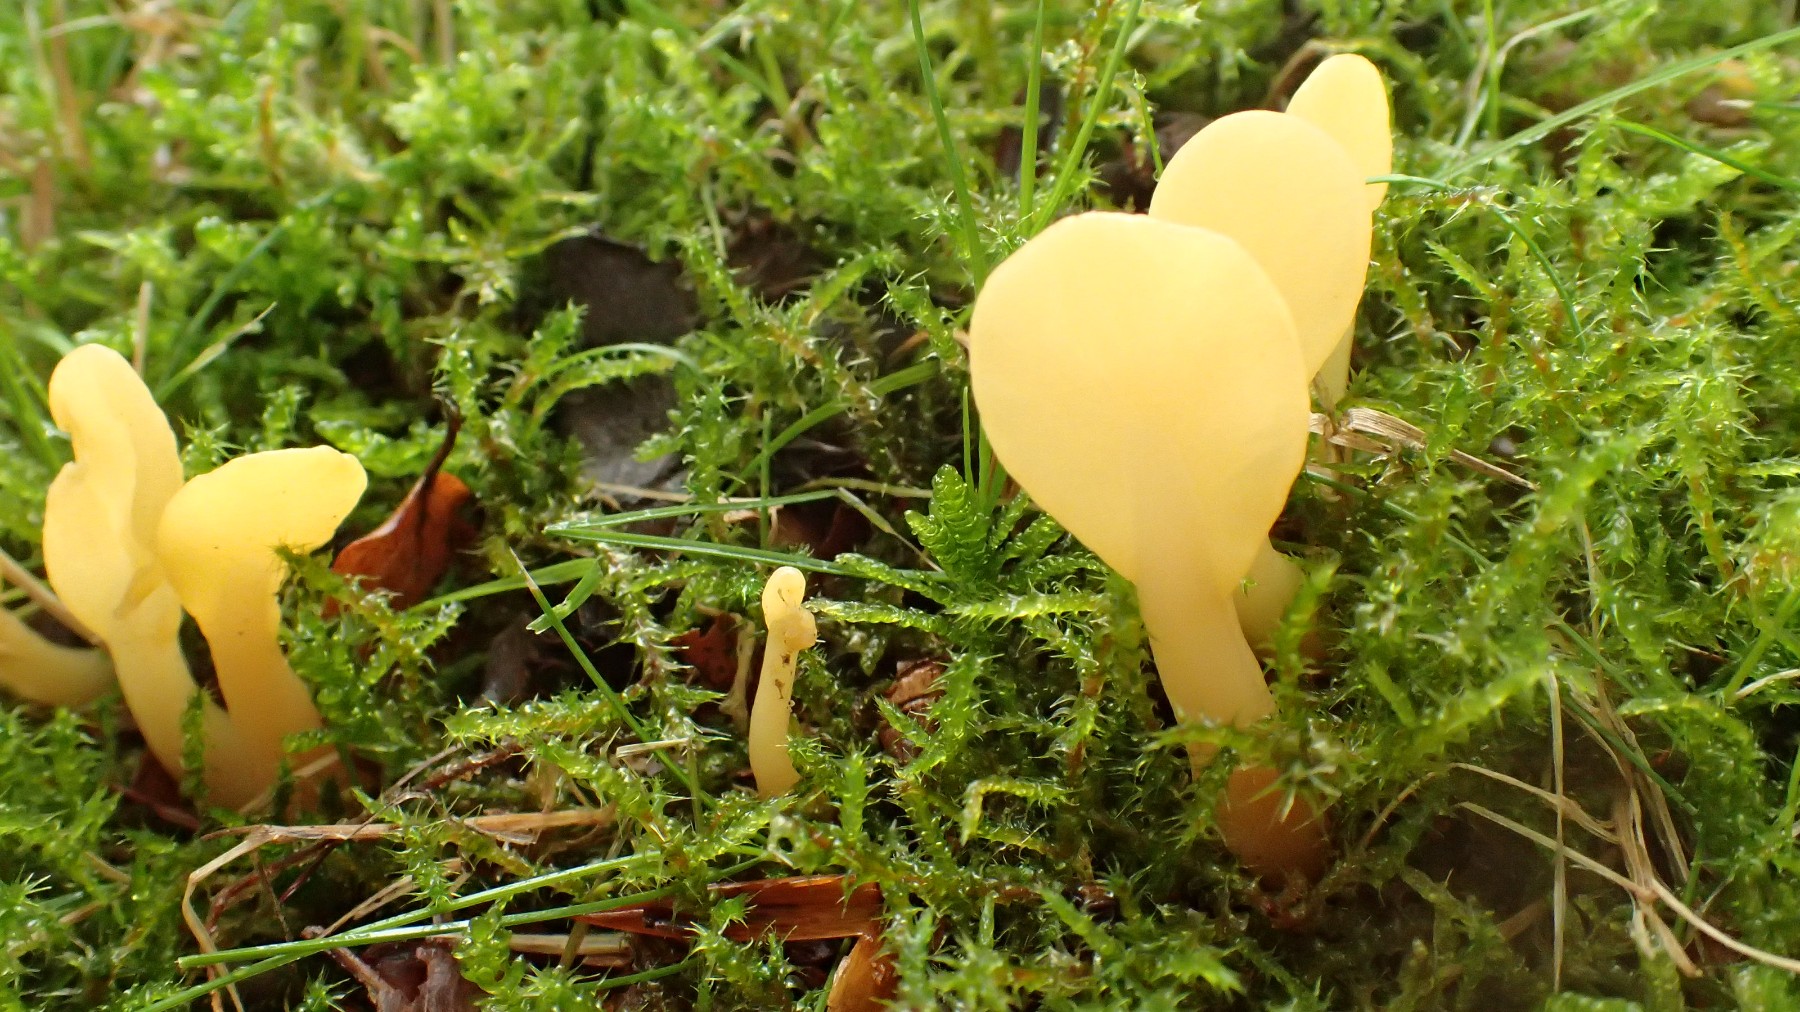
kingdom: Fungi
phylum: Ascomycota
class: Leotiomycetes
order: Rhytismatales
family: Cudoniaceae
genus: Spathularia
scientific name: Spathularia flavida
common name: gul spatelsvamp
